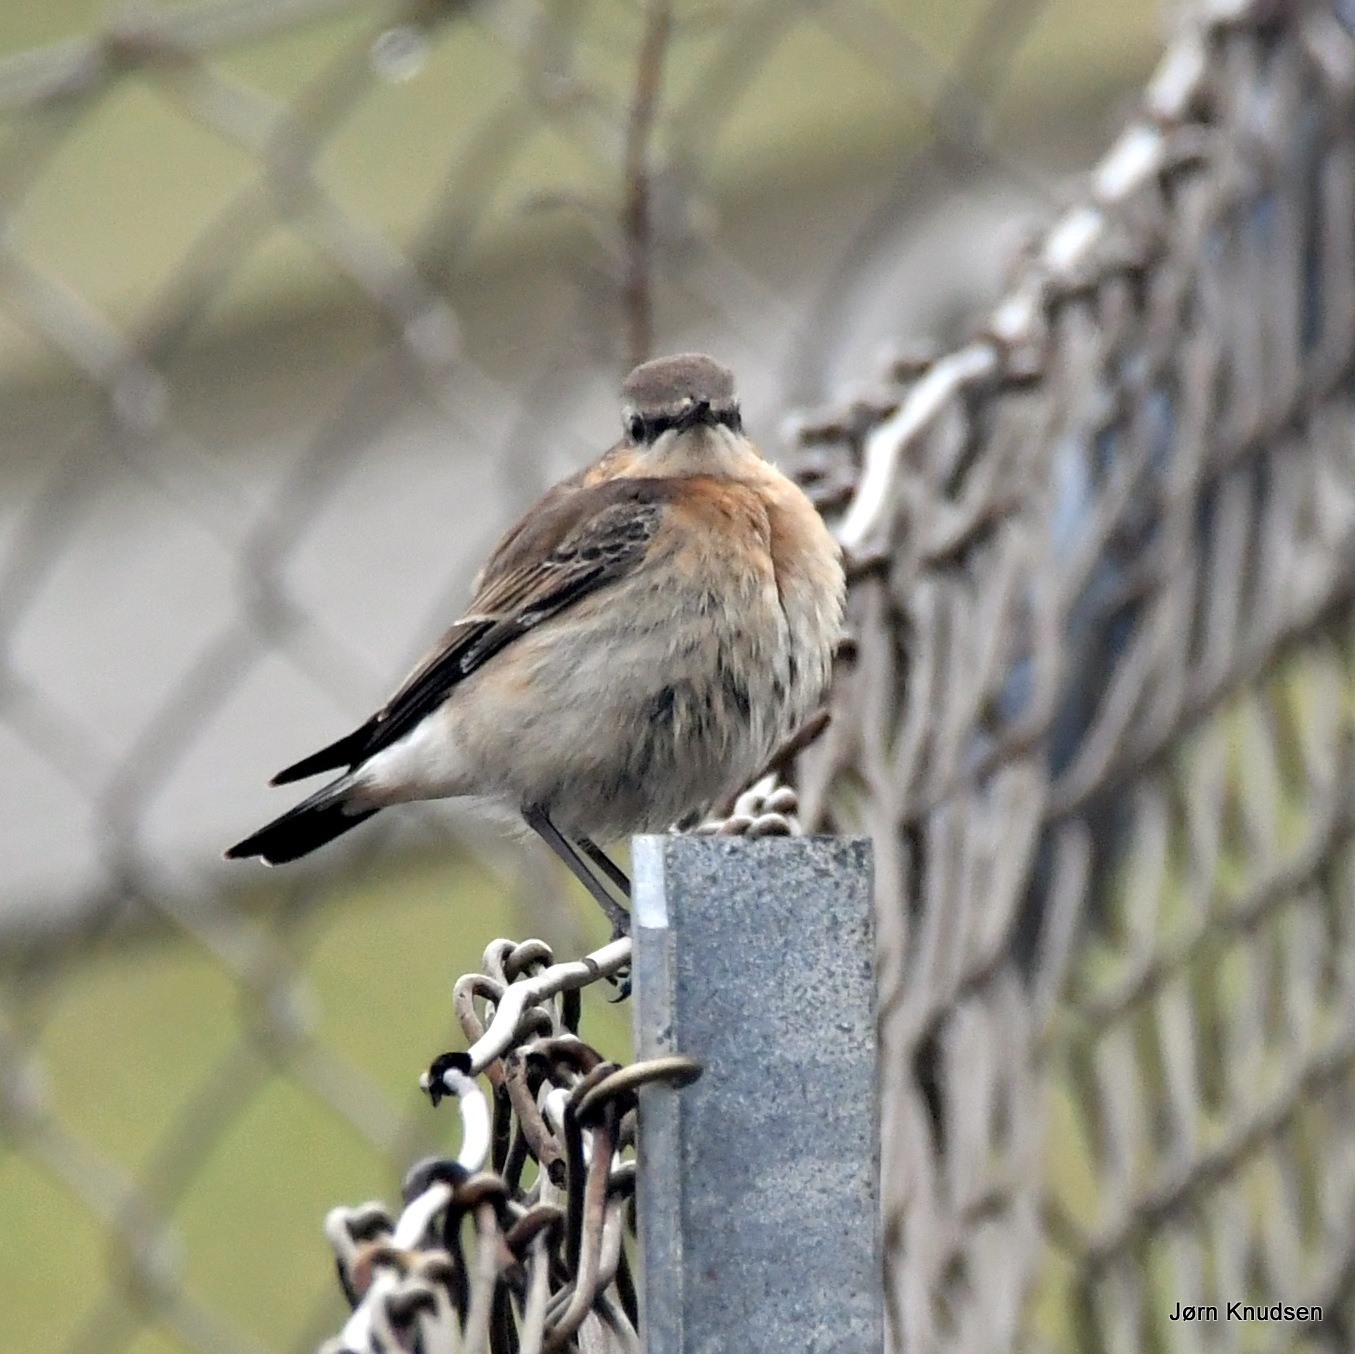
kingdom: Animalia
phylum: Chordata
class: Aves
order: Passeriformes
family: Muscicapidae
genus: Oenanthe
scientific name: Oenanthe oenanthe
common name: Stenpikker
